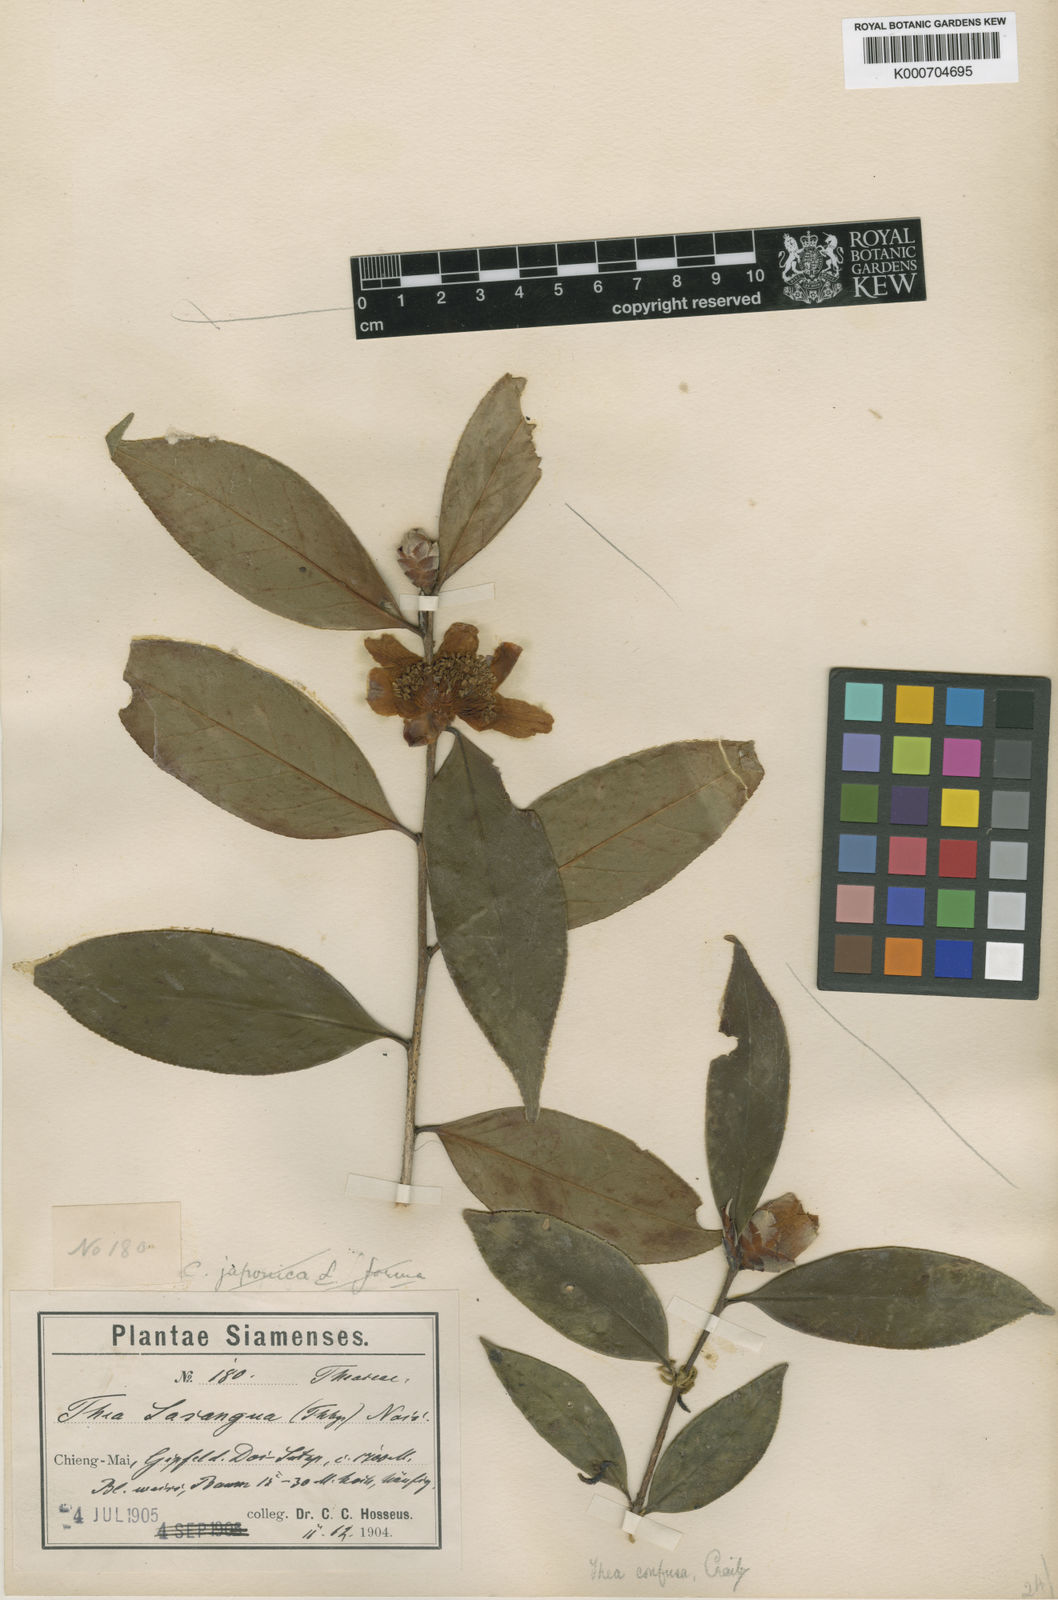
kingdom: Plantae
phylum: Tracheophyta
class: Magnoliopsida
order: Ericales
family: Theaceae
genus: Camellia
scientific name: Camellia oleifera
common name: Tea-oil-plant
